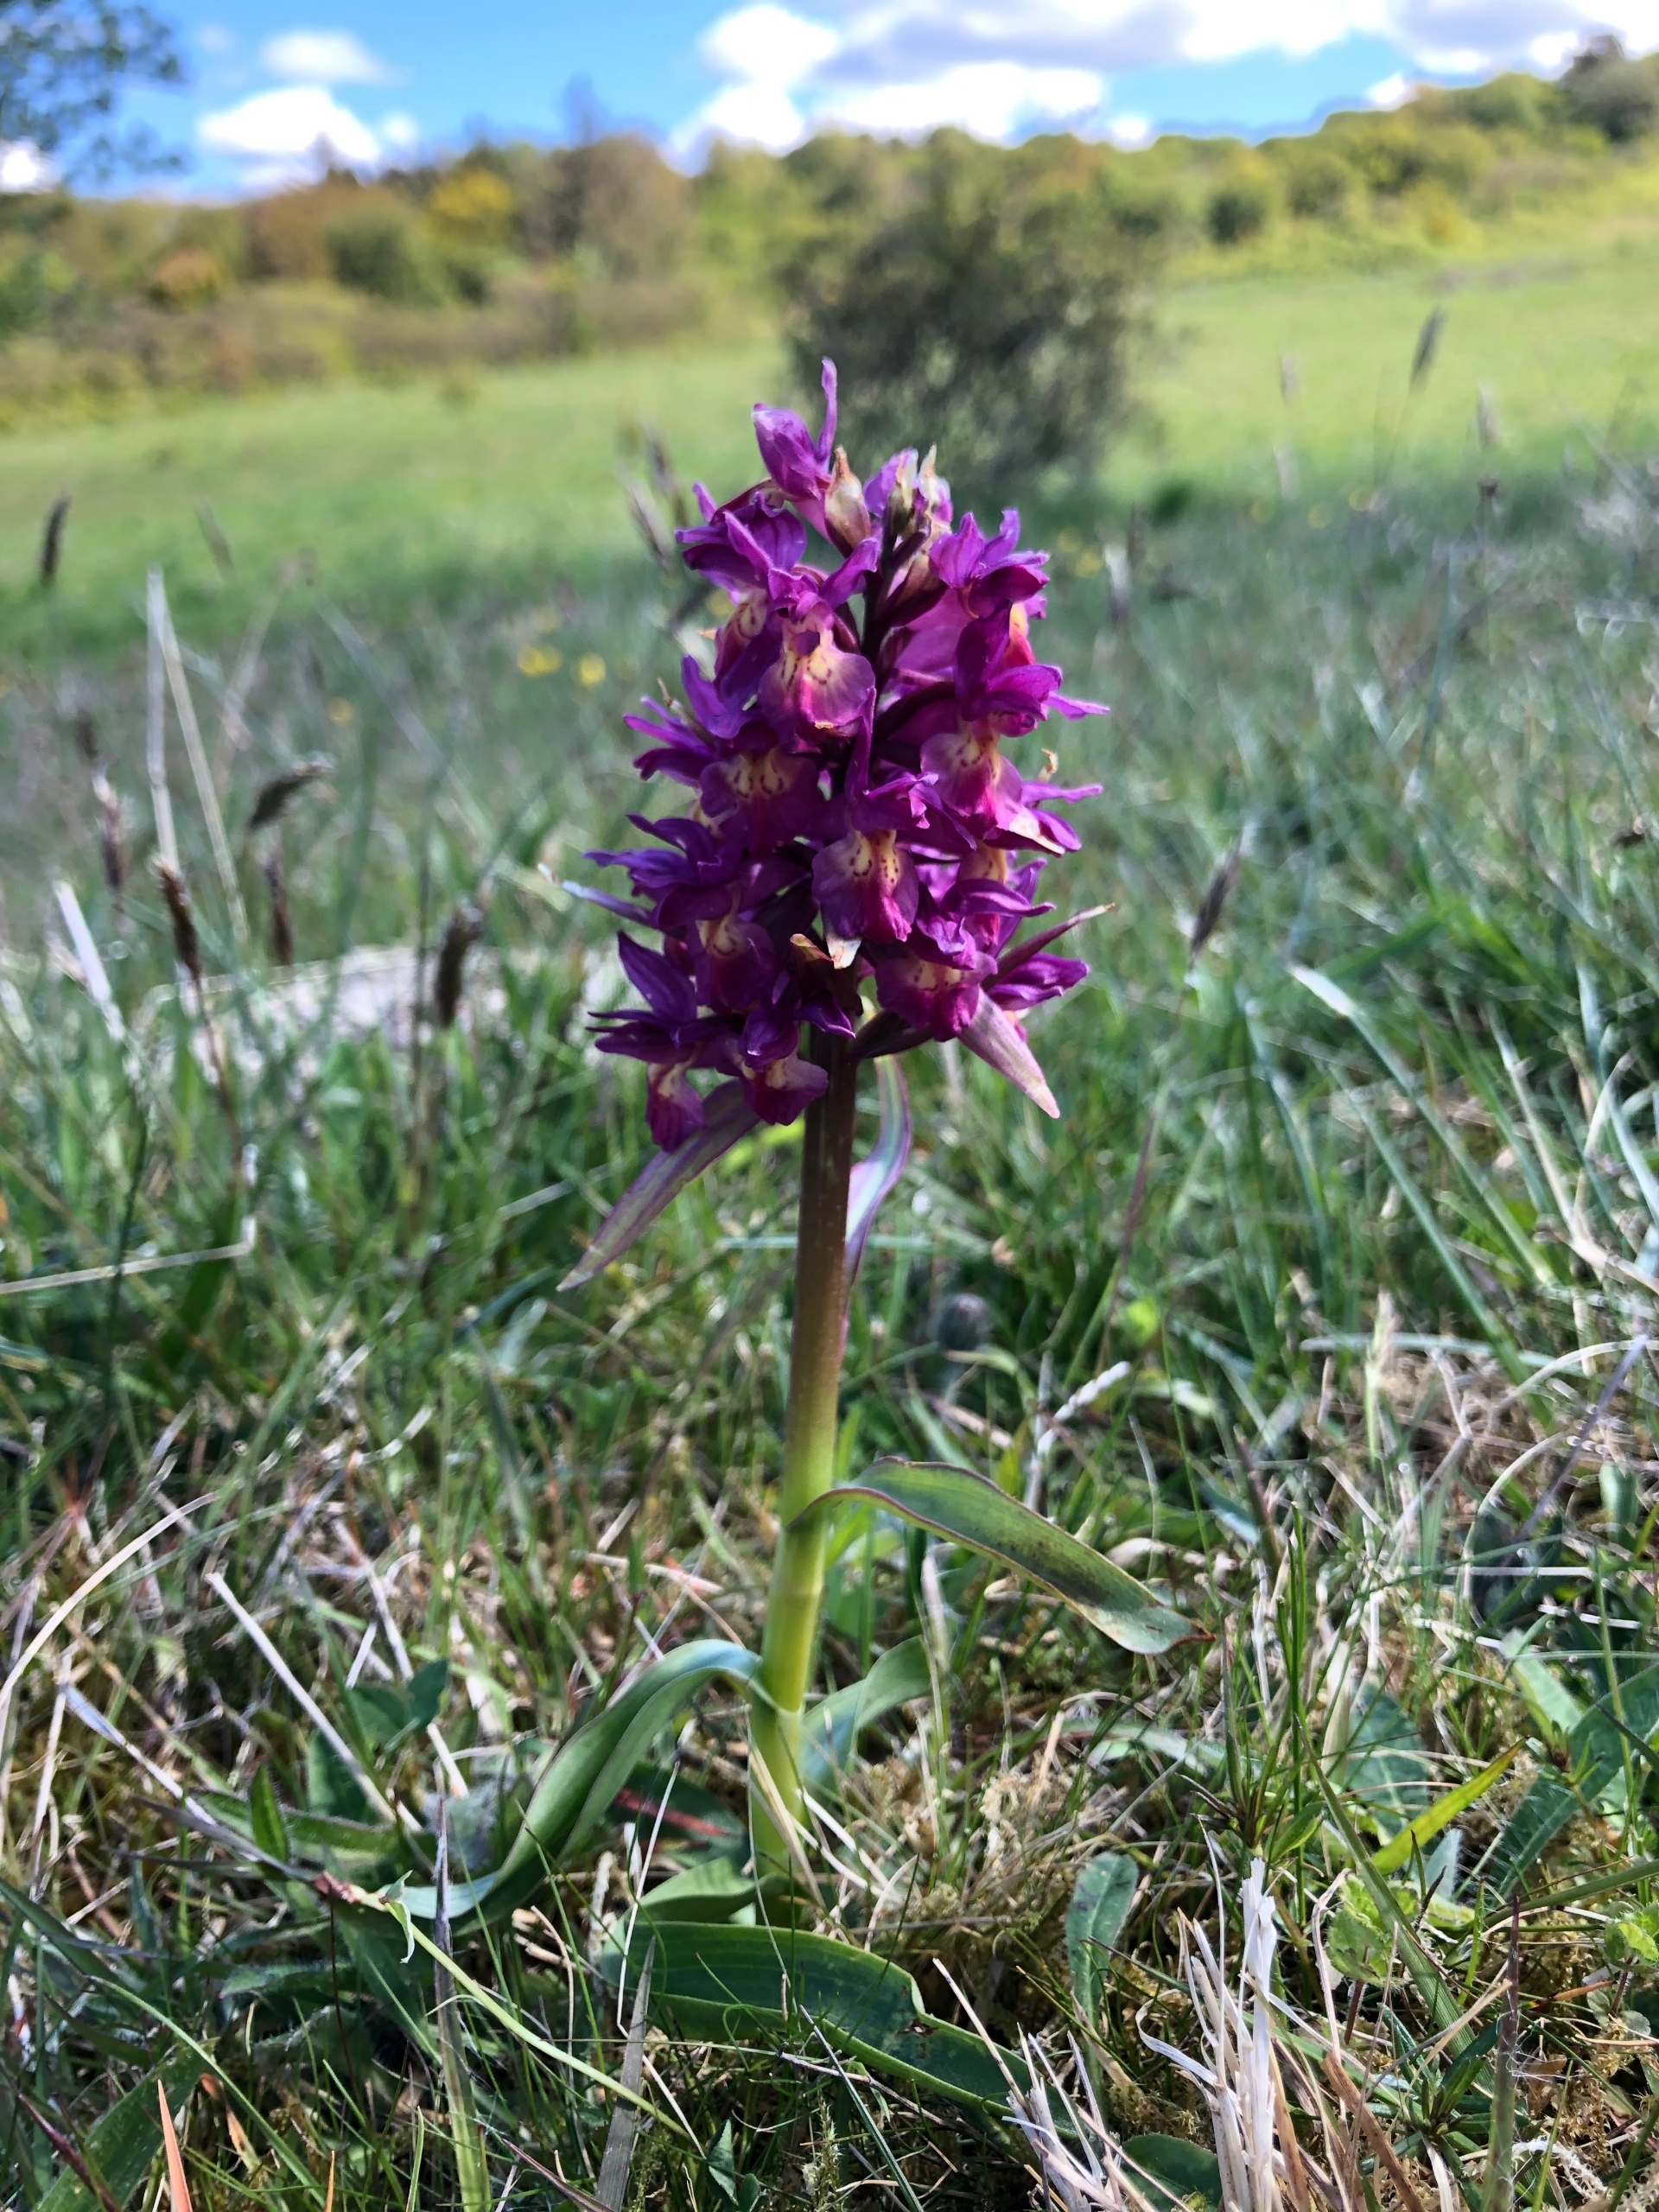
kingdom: Plantae
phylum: Tracheophyta
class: Liliopsida
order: Asparagales
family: Orchidaceae
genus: Dactylorhiza
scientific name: Dactylorhiza sambucina
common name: Hylde-gøgeurt
